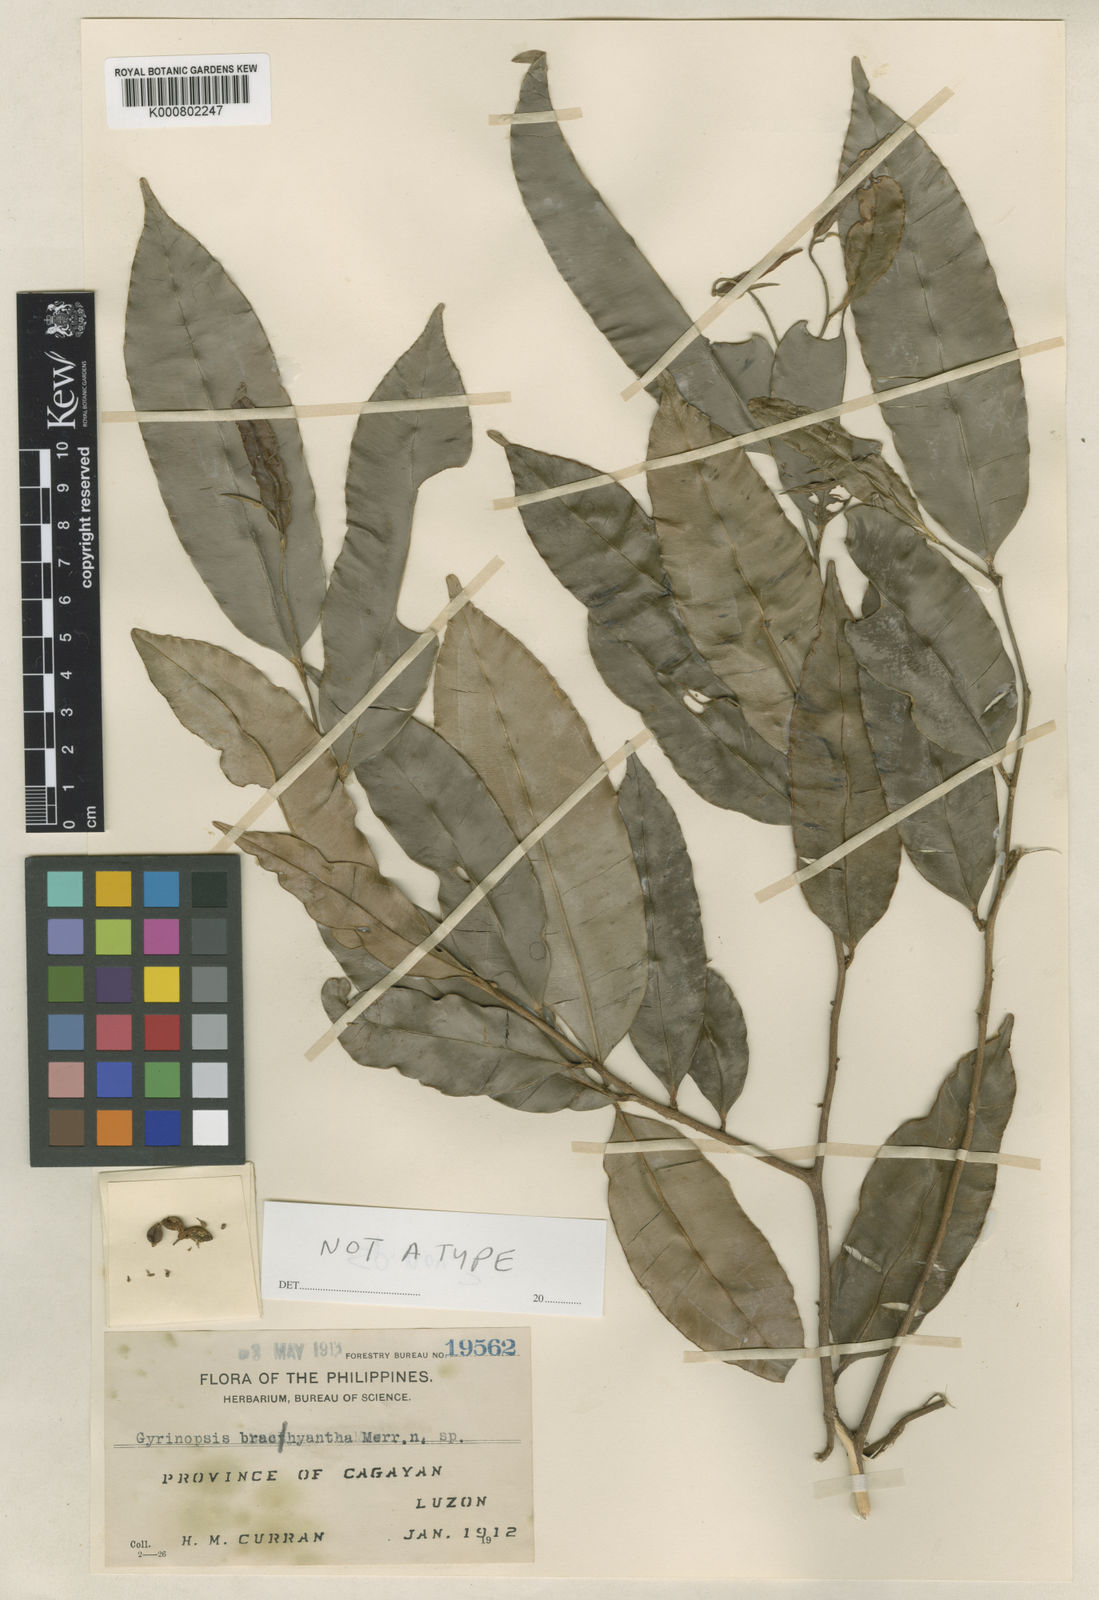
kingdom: Plantae
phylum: Tracheophyta
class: Magnoliopsida
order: Malvales
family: Thymelaeaceae
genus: Aquilaria
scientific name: Aquilaria brachyantha
